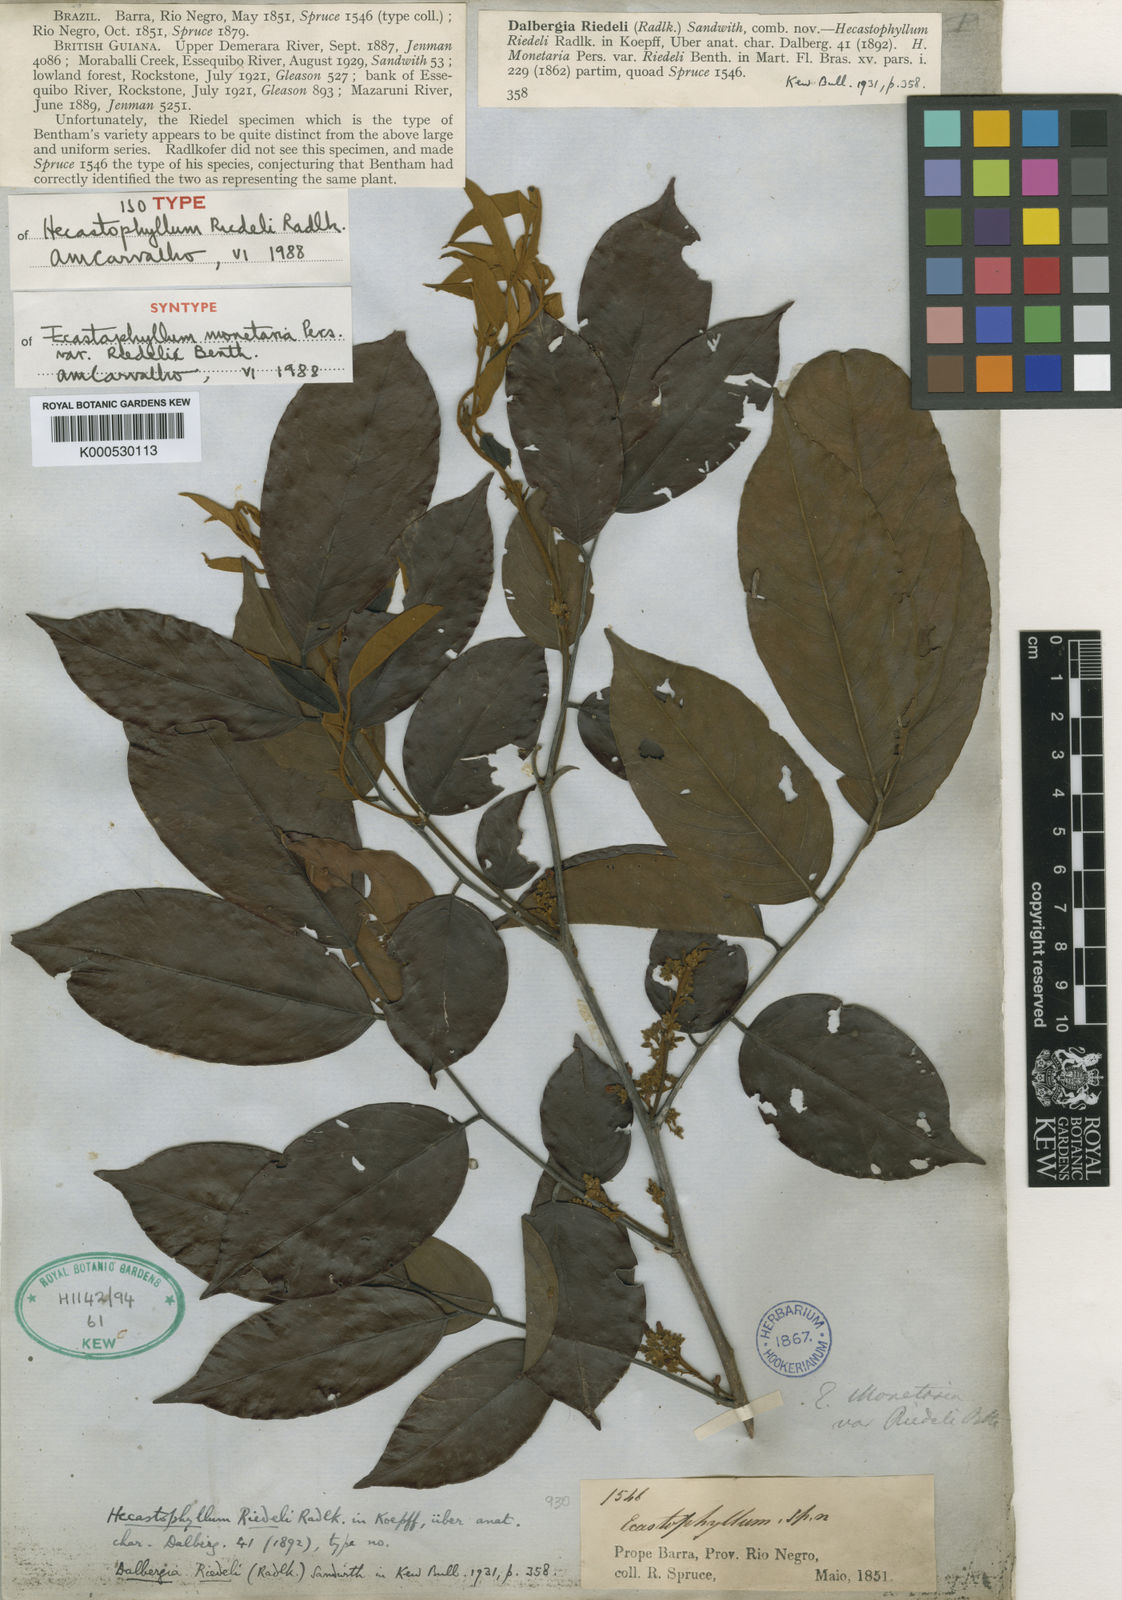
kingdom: Plantae
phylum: Tracheophyta
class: Magnoliopsida
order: Fabales
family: Fabaceae
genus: Dalbergia
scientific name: Dalbergia riedelii
